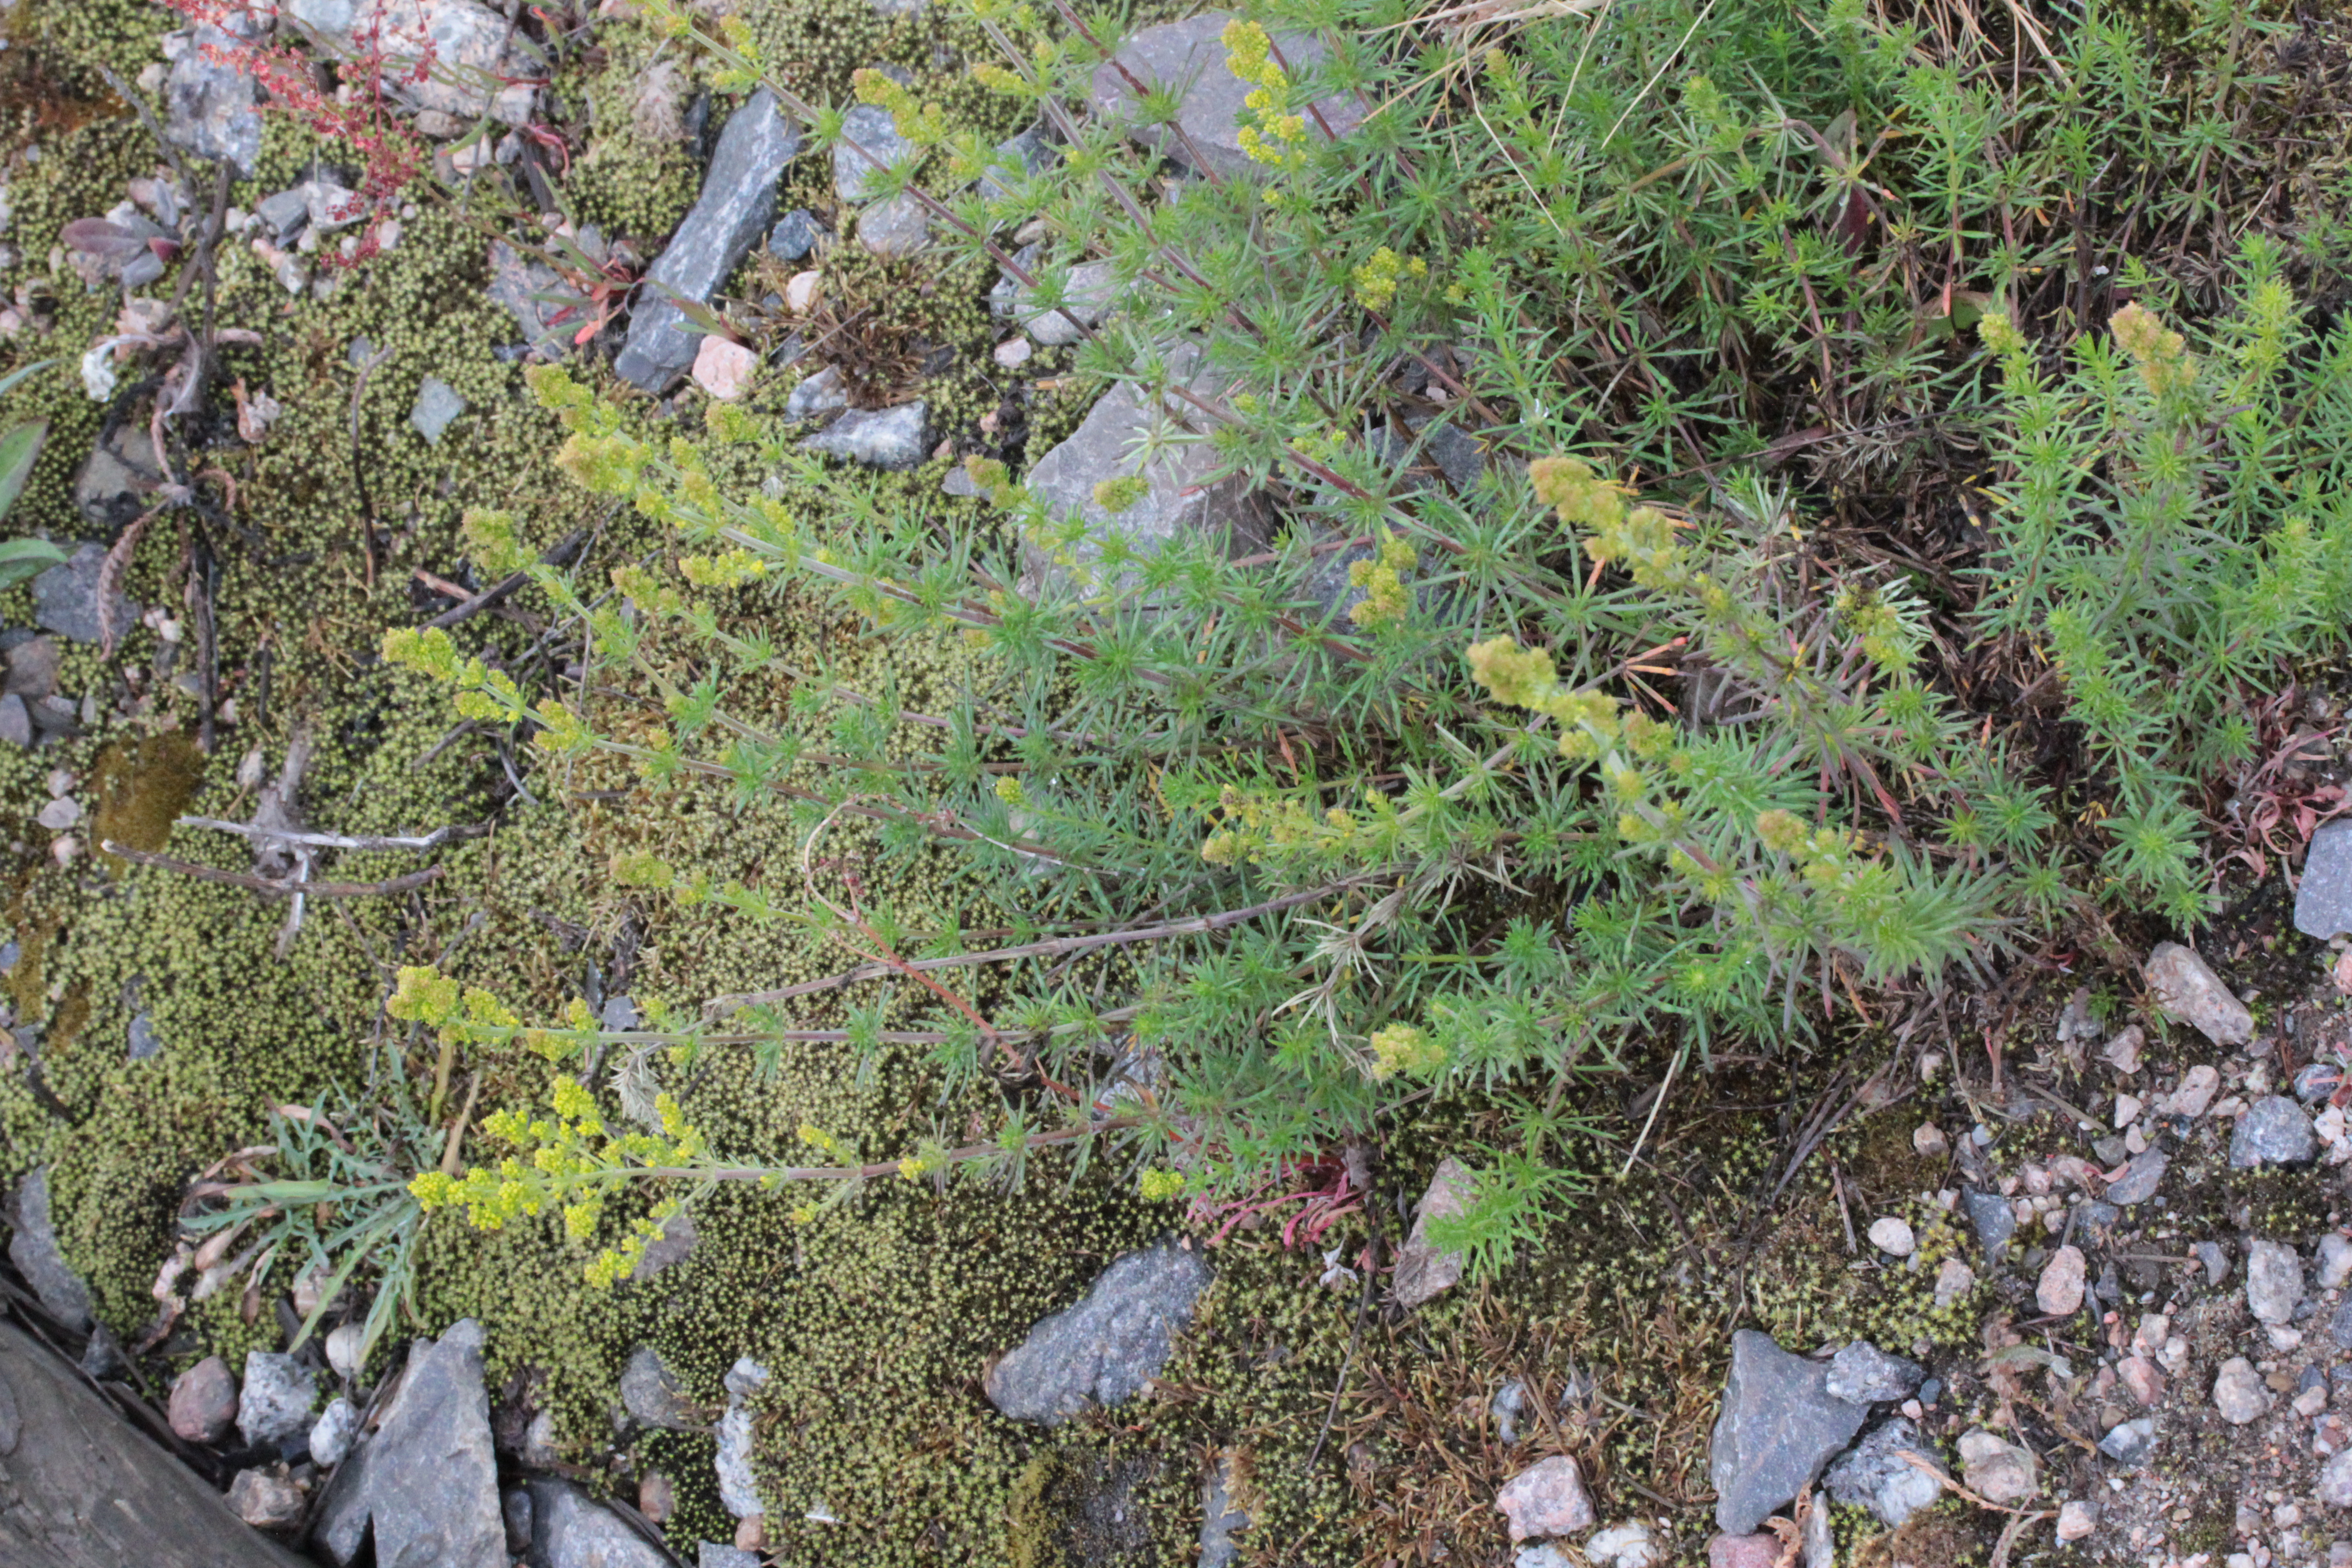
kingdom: Plantae
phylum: Tracheophyta
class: Magnoliopsida
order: Gentianales
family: Rubiaceae
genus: Galium
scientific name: Galium verum
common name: Lady's bedstraw
